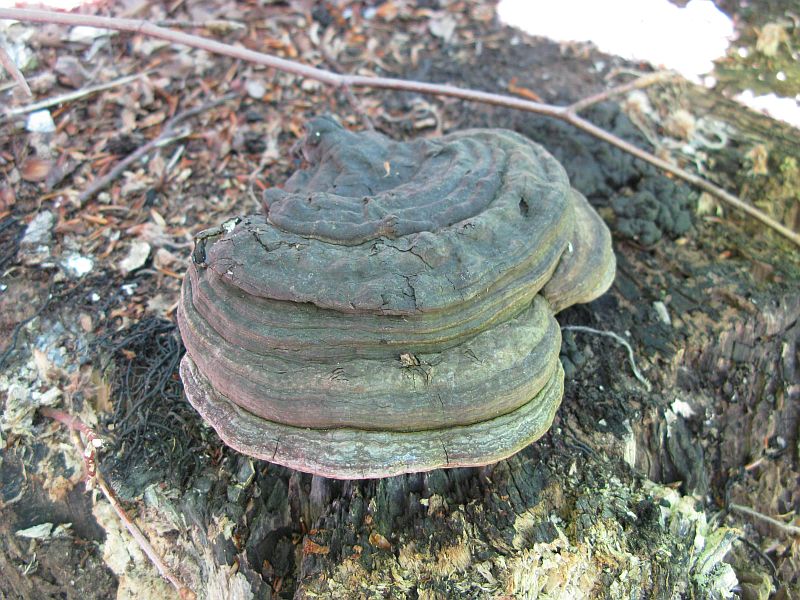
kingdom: Fungi
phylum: Basidiomycota
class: Agaricomycetes
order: Polyporales
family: Polyporaceae
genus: Ganoderma
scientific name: Ganoderma applanatum
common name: flad lakporesvamp
